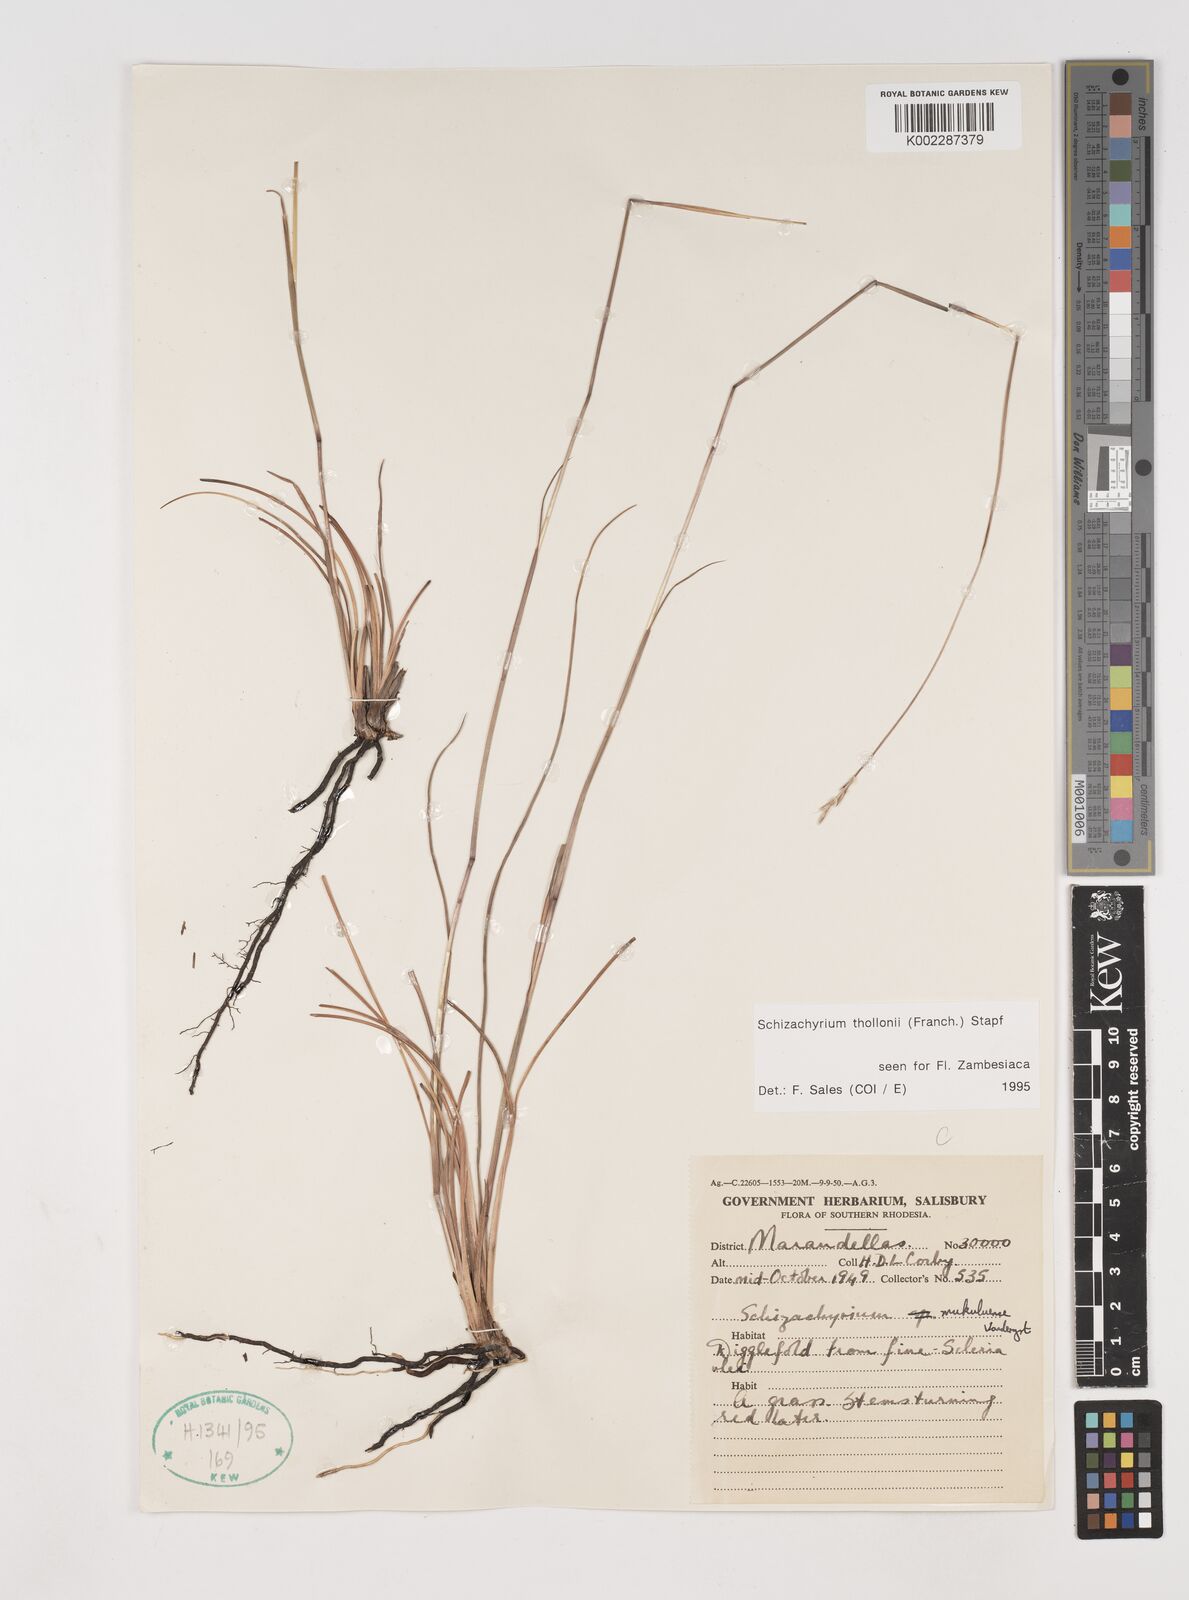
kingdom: Plantae
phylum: Tracheophyta
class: Liliopsida
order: Poales
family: Poaceae
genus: Schizachyrium
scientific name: Schizachyrium thollonii
